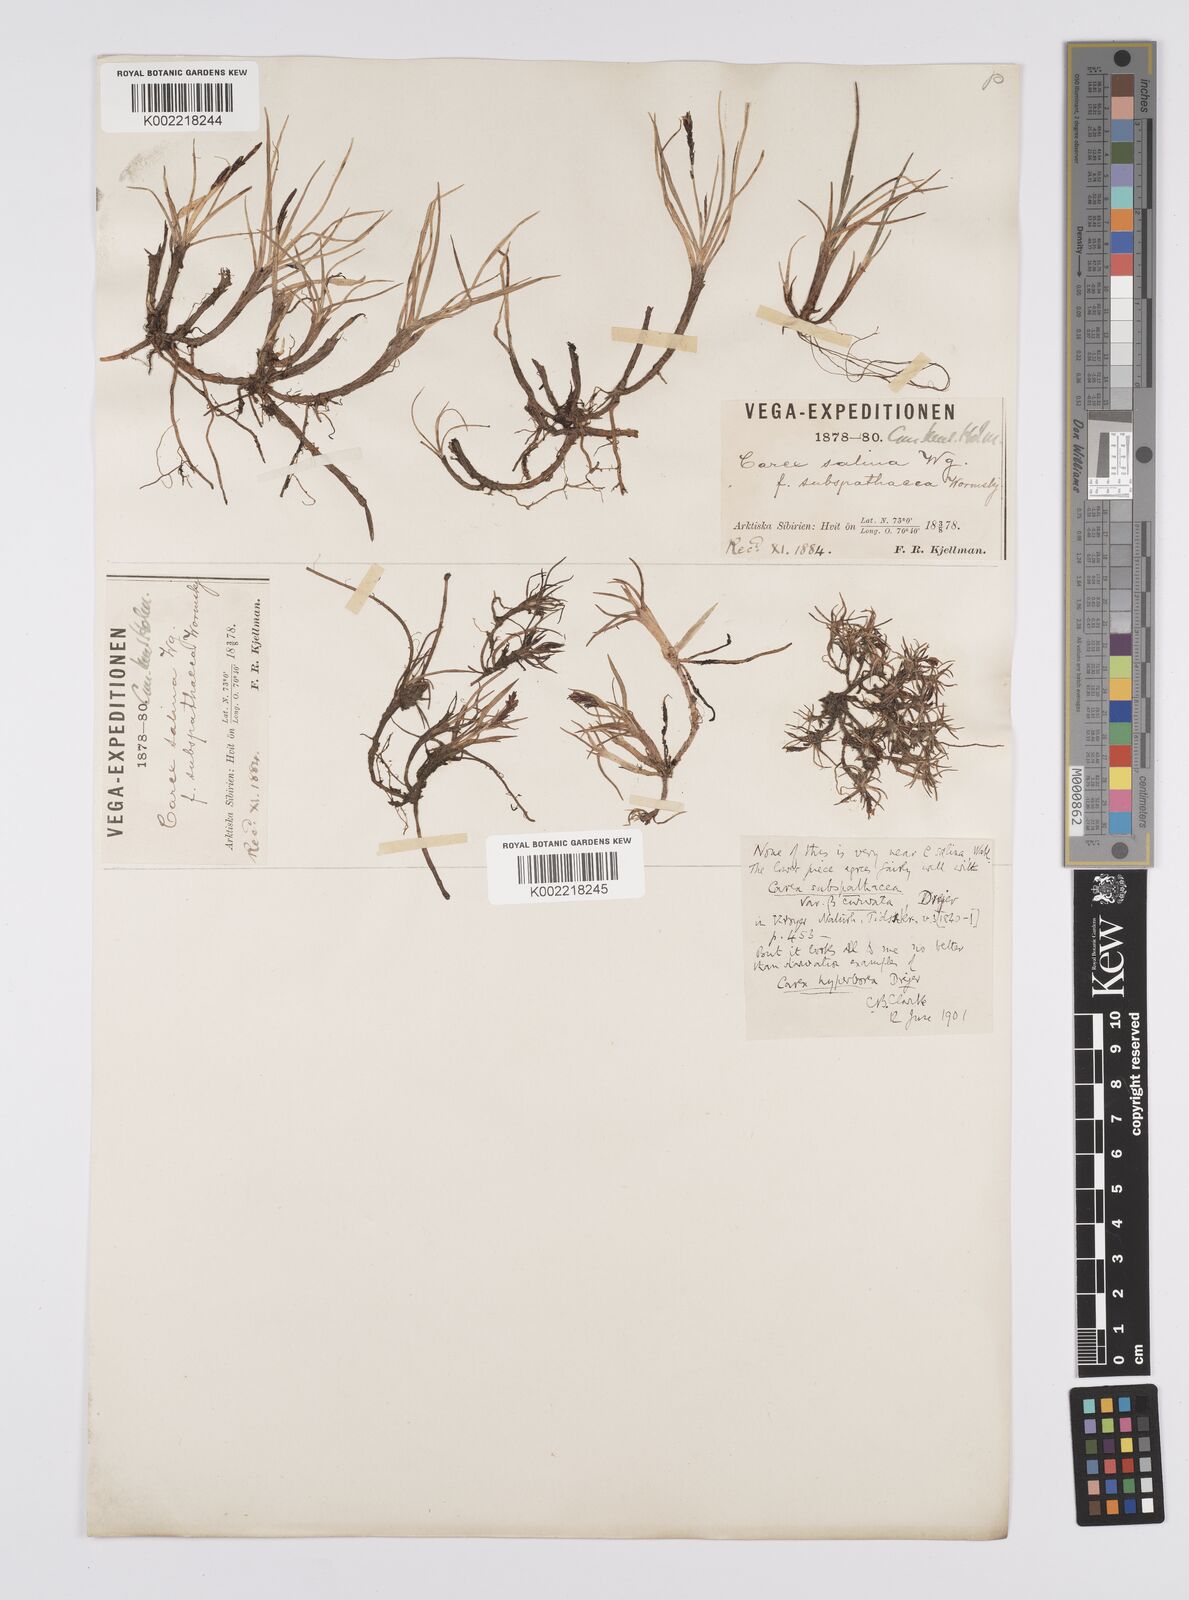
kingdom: Plantae
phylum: Tracheophyta
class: Liliopsida
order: Poales
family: Cyperaceae
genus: Carex
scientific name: Carex subspathacea
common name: Hoppner's sedge
